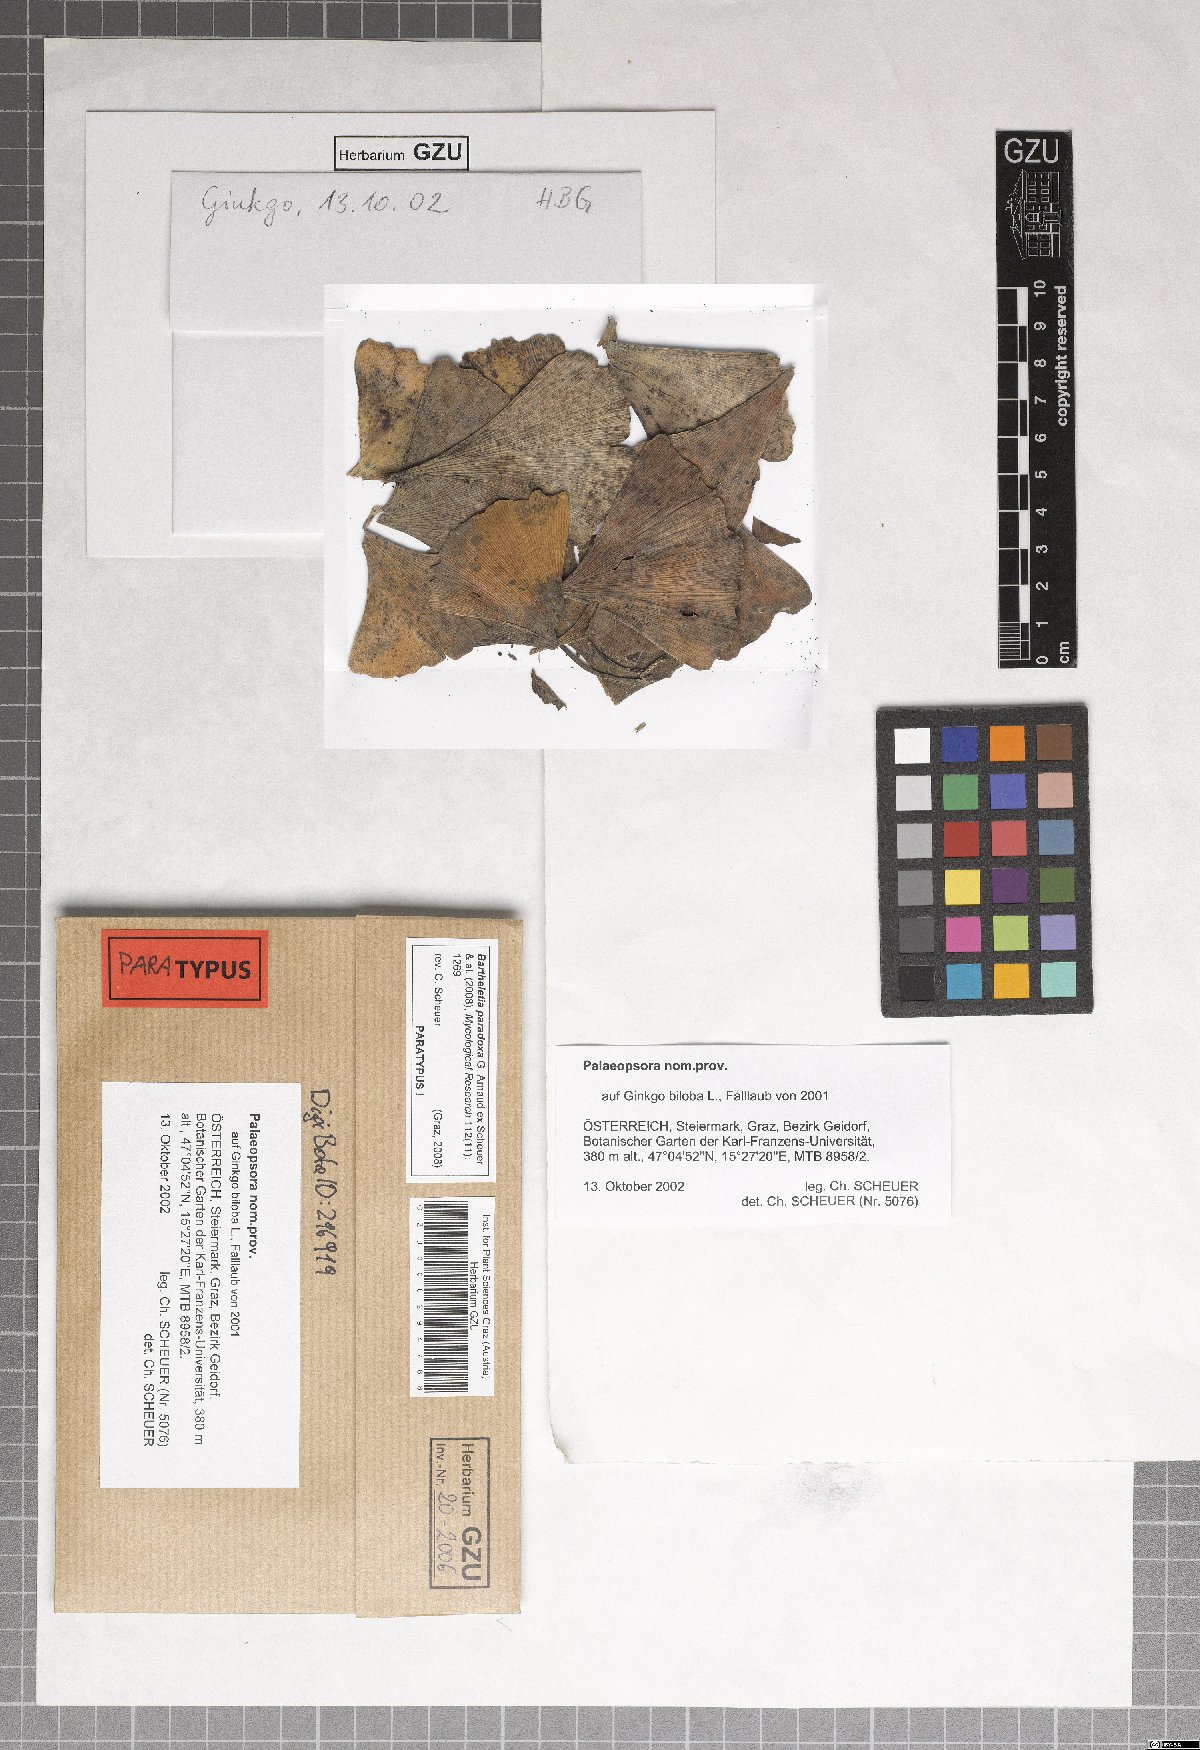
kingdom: Fungi
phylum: Basidiomycota
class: Wallemiomycetes
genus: Bartheletia
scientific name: Bartheletia paradoxa
